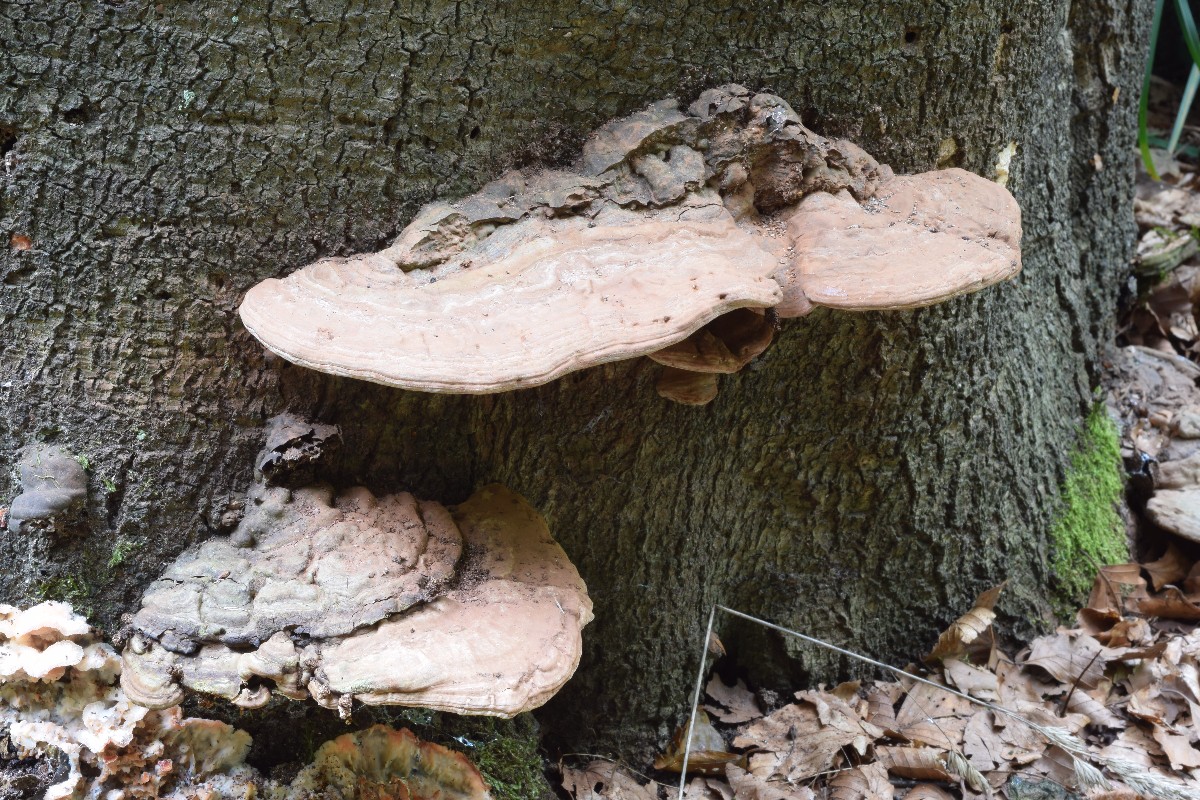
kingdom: Fungi
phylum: Basidiomycota
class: Agaricomycetes
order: Polyporales
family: Polyporaceae
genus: Ganoderma
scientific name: Ganoderma applanatum
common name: flad lakporesvamp
